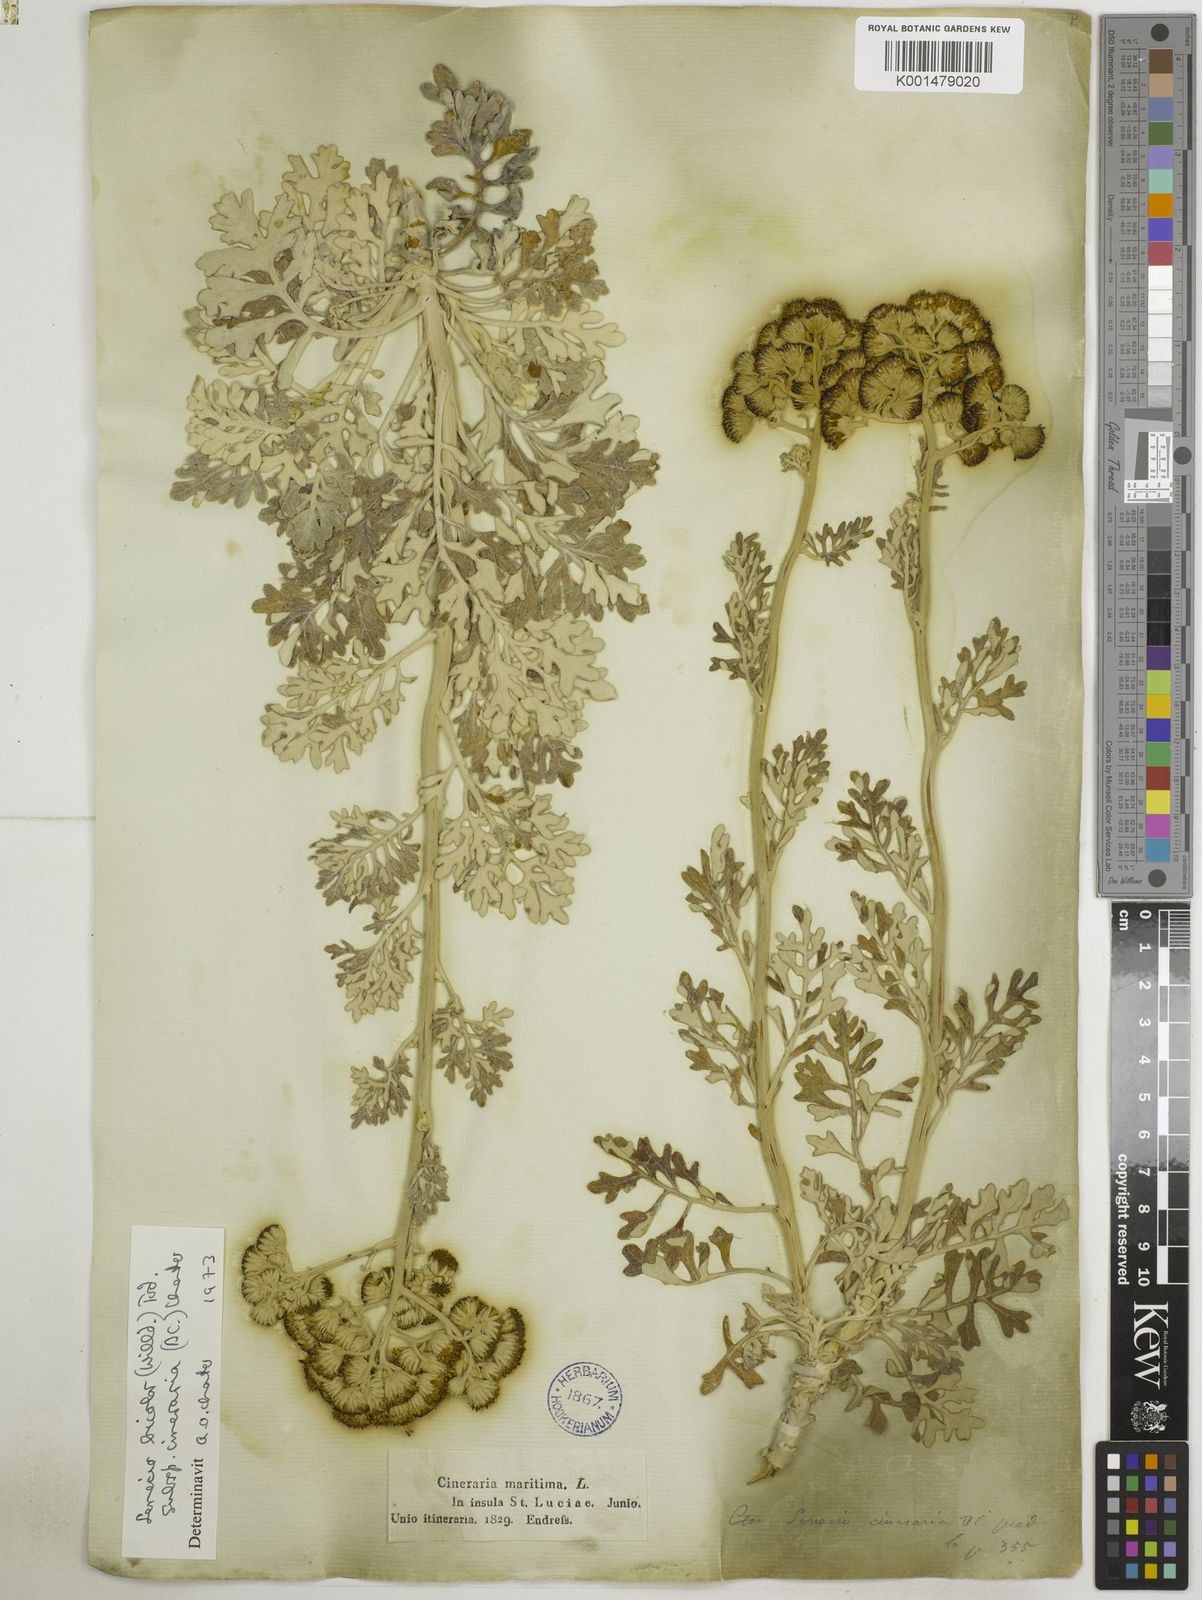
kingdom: Plantae
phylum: Tracheophyta
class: Magnoliopsida
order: Asterales
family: Asteraceae
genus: Jacobaea
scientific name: Jacobaea maritima
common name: Silver ragwort
